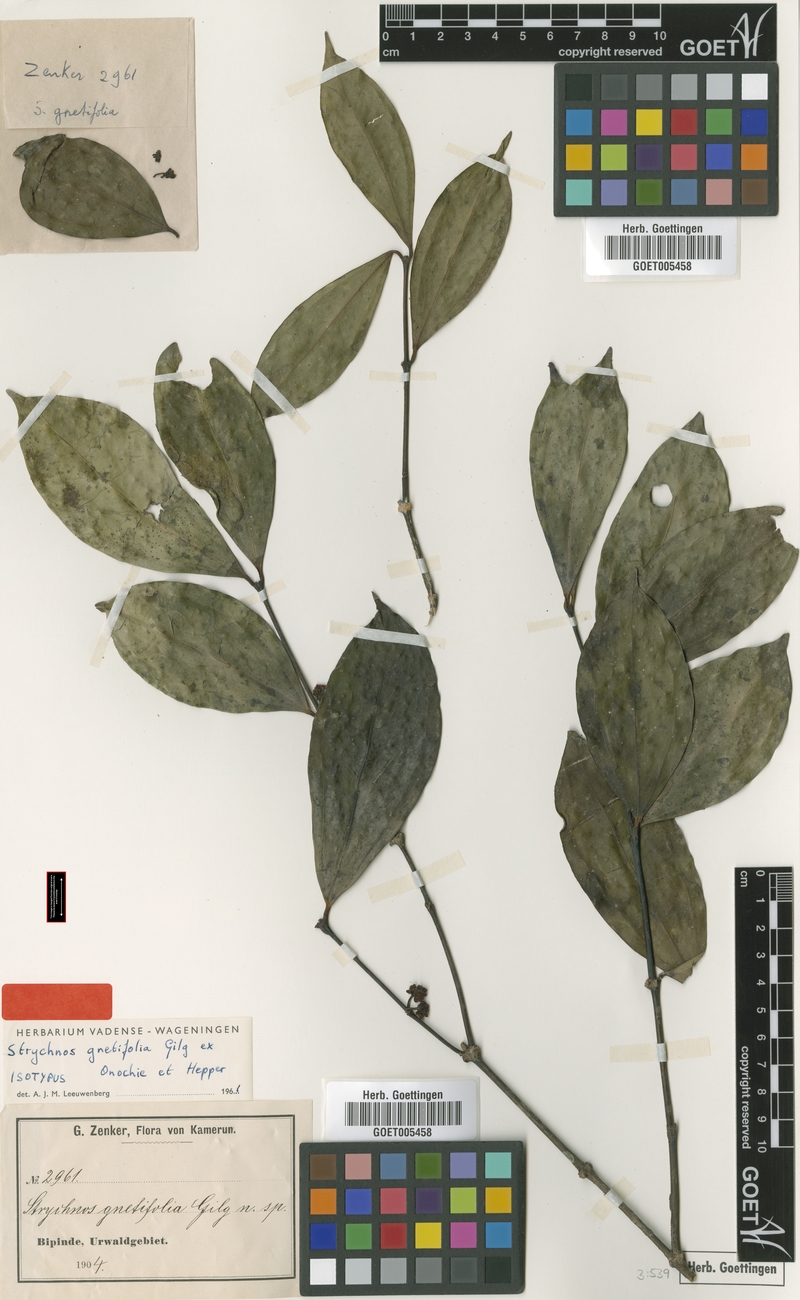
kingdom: Plantae
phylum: Tracheophyta
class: Magnoliopsida
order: Gentianales
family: Loganiaceae
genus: Strychnos
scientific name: Strychnos gnetifolia
